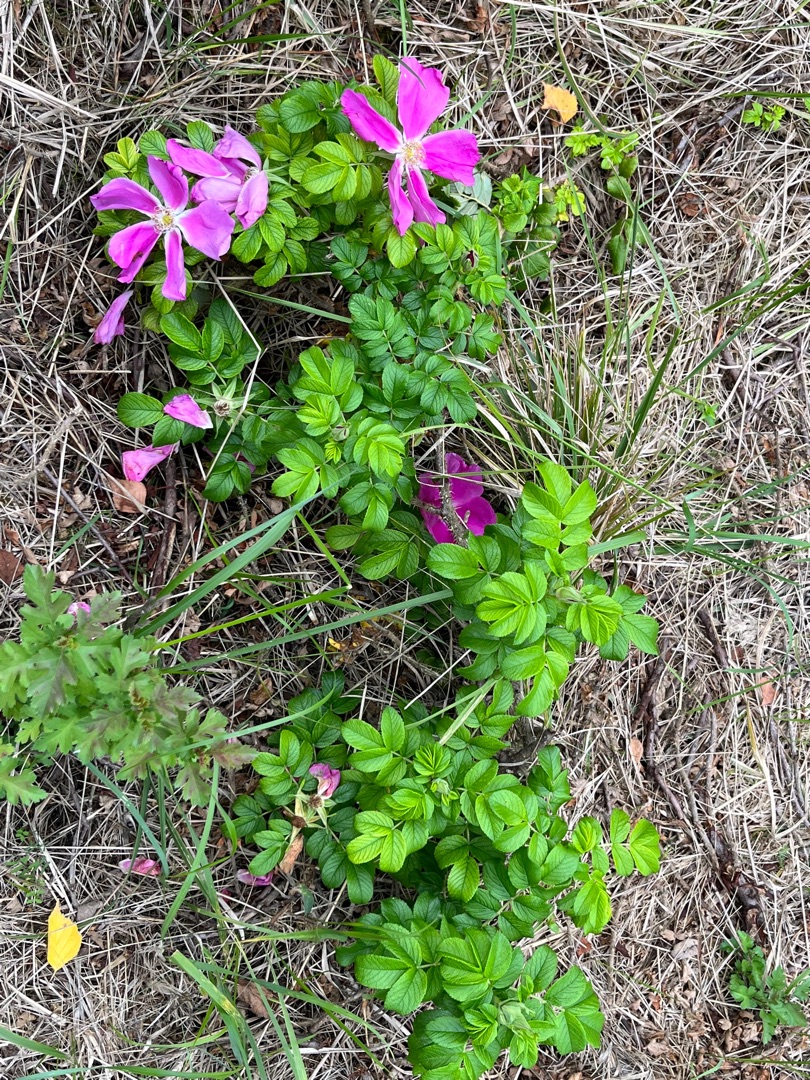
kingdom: Plantae
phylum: Tracheophyta
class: Magnoliopsida
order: Rosales
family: Rosaceae
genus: Rosa
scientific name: Rosa rugosa
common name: Rynket rose
